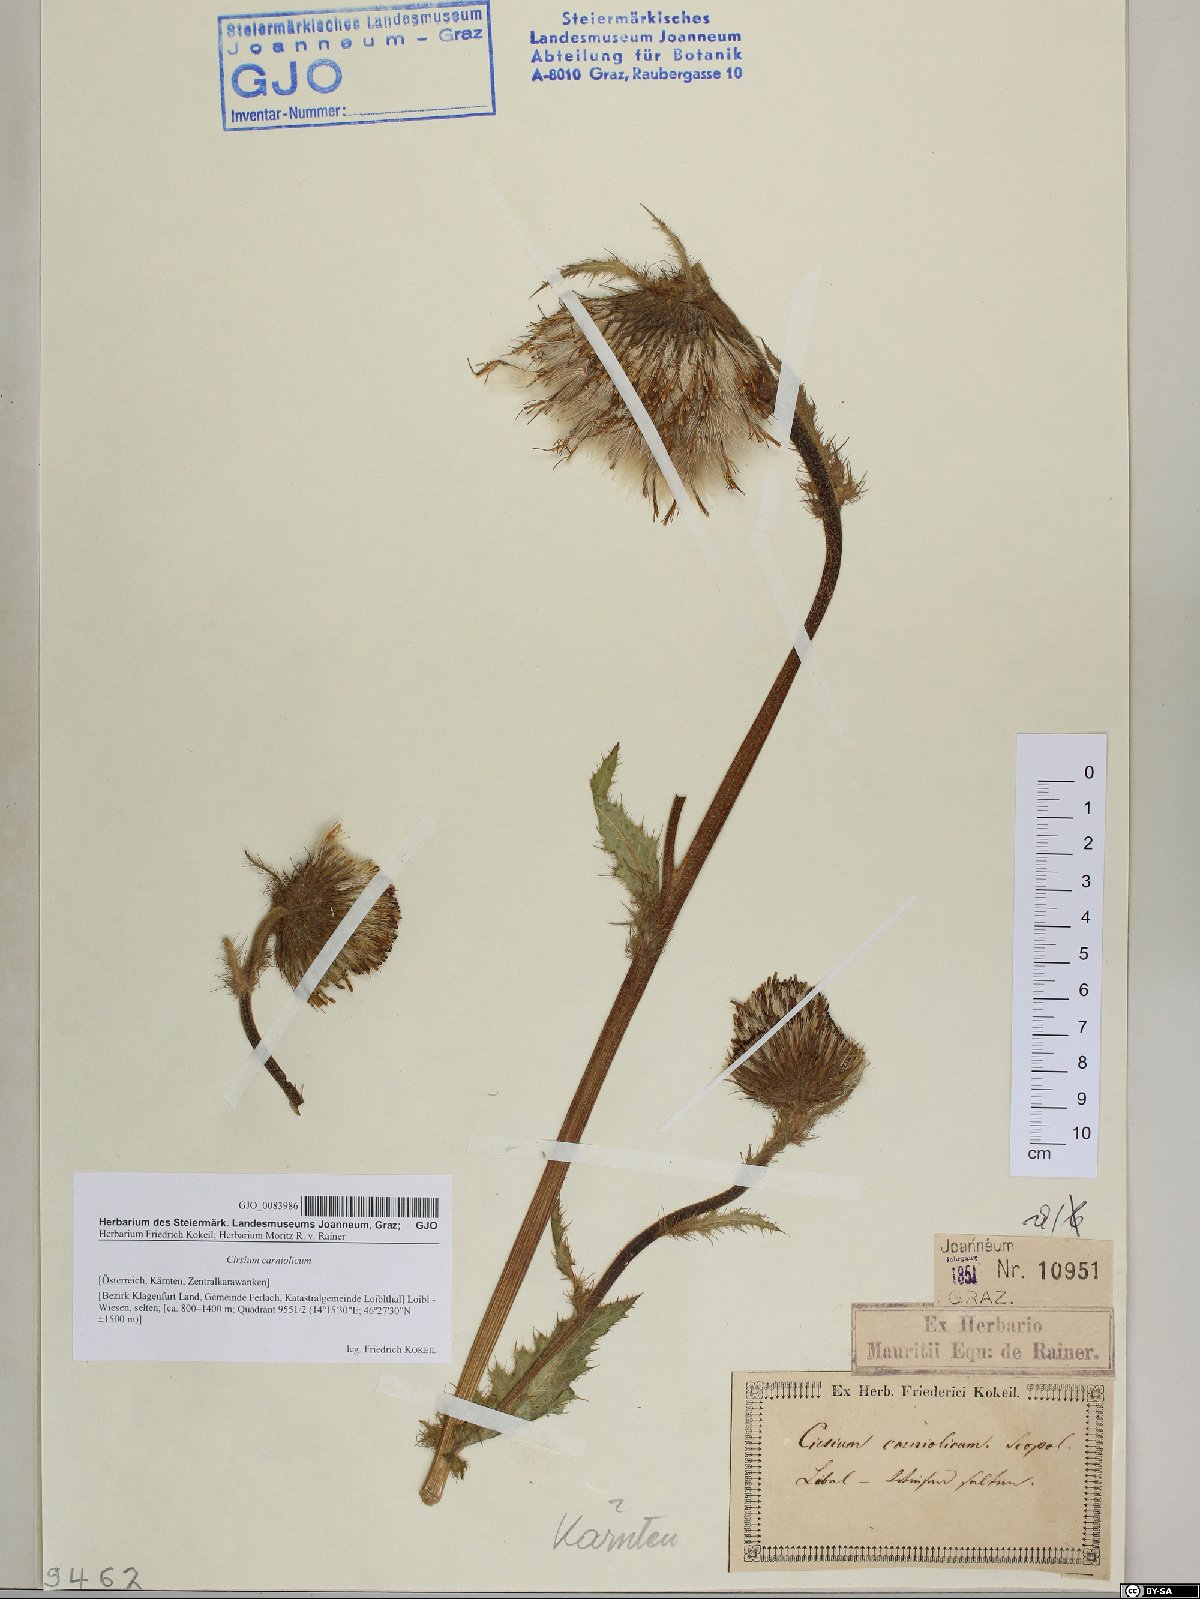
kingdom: Plantae
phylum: Tracheophyta
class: Magnoliopsida
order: Asterales
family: Asteraceae
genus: Cirsium
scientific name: Cirsium carniolicum
